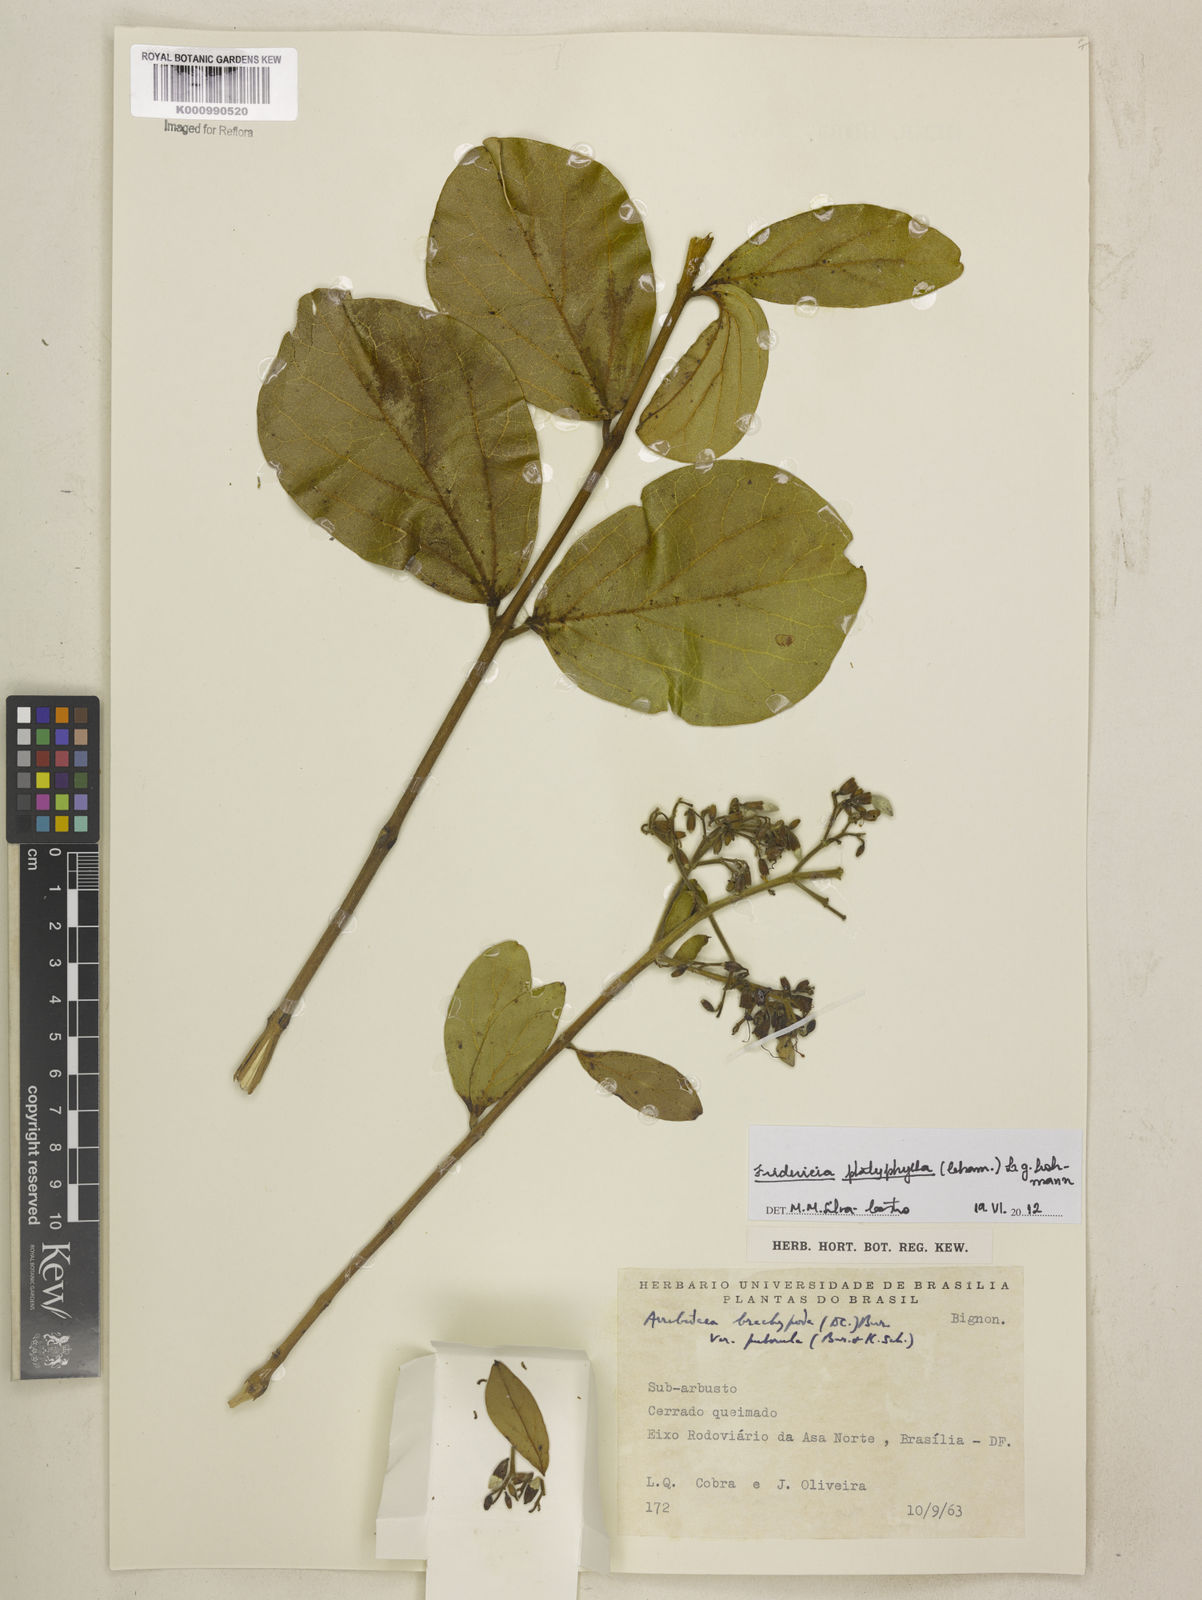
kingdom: Plantae
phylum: Tracheophyta
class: Magnoliopsida
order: Lamiales
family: Bignoniaceae
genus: Fridericia
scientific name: Fridericia platyphylla
